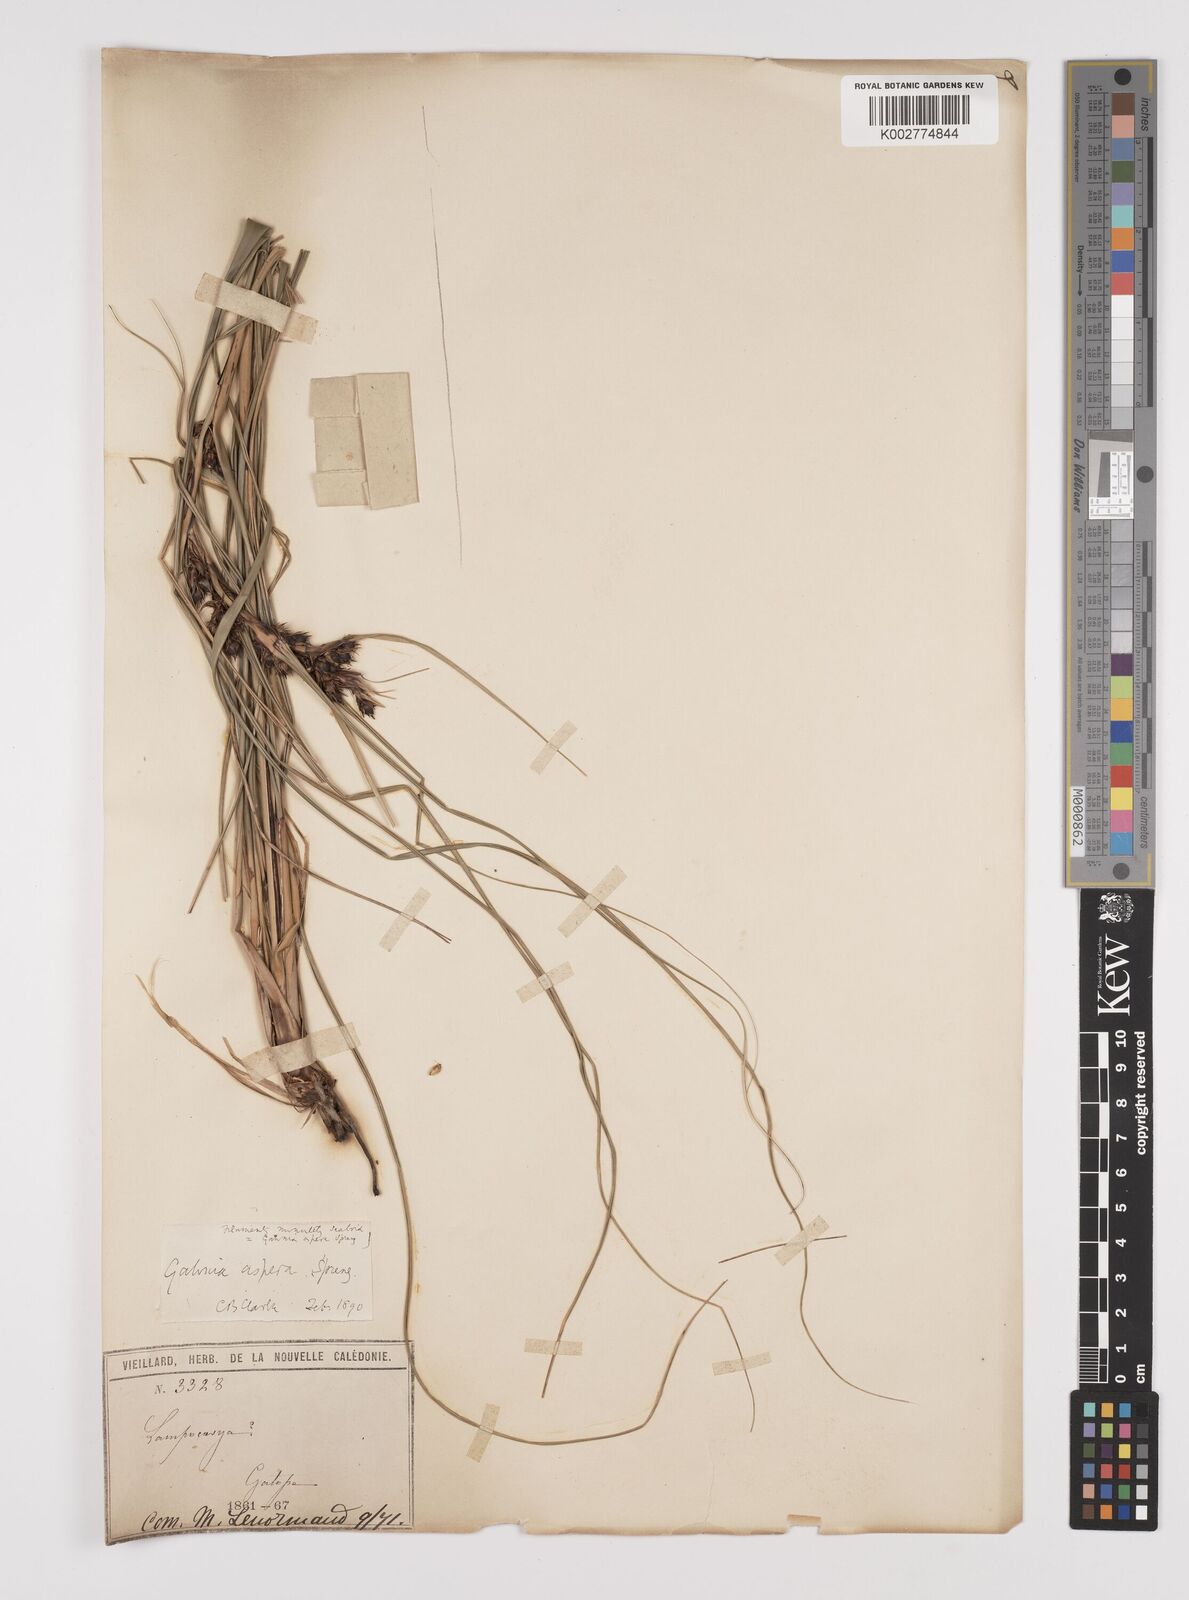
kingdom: Plantae
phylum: Tracheophyta
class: Liliopsida
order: Poales
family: Cyperaceae
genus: Gahnia
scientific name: Gahnia aspera
